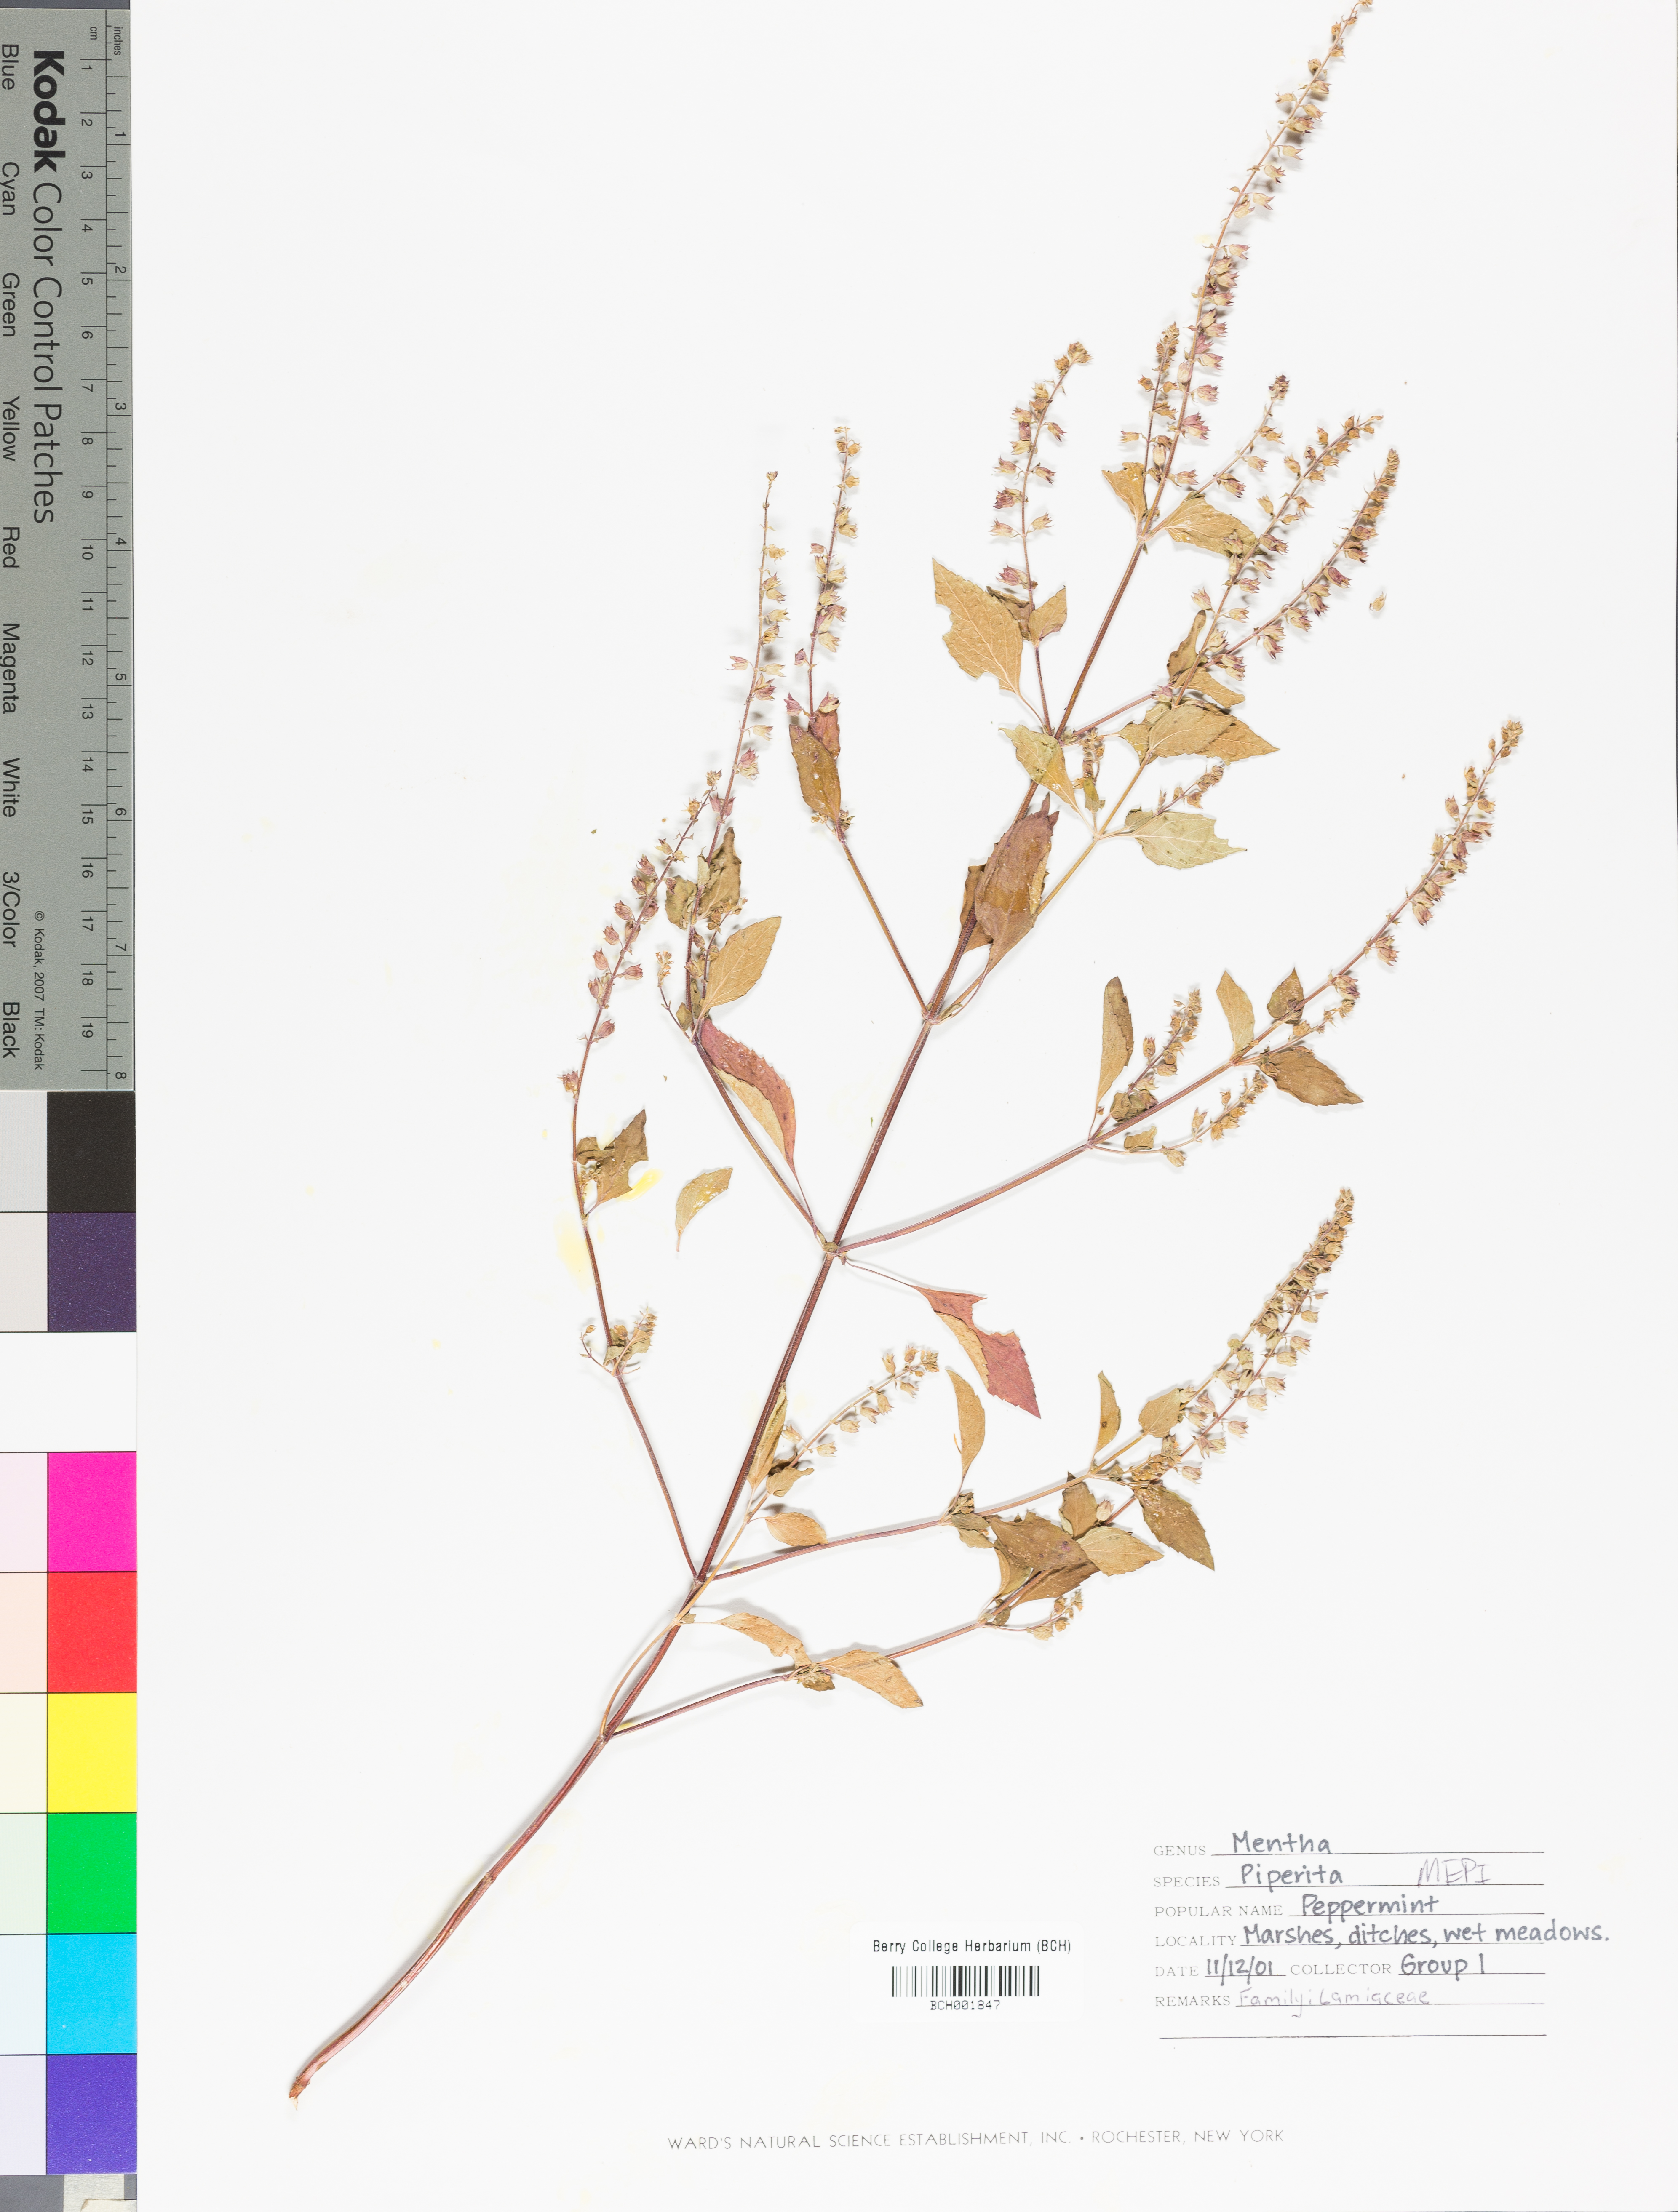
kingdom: Plantae
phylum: Tracheophyta
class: Magnoliopsida
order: Lamiales
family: Lamiaceae
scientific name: Lamiaceae
